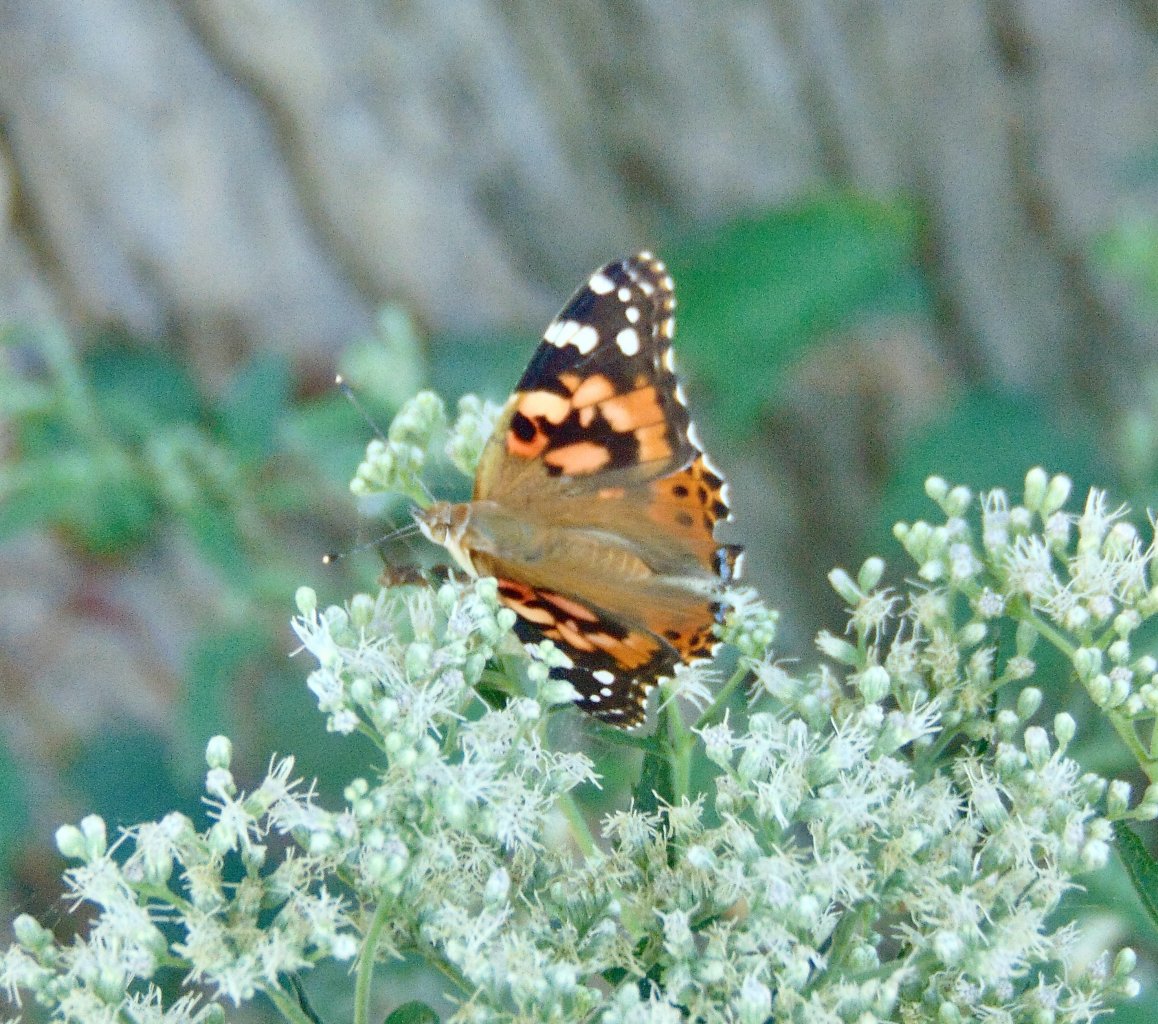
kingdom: Animalia
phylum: Arthropoda
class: Insecta
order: Lepidoptera
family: Nymphalidae
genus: Vanessa
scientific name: Vanessa cardui
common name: Painted Lady
